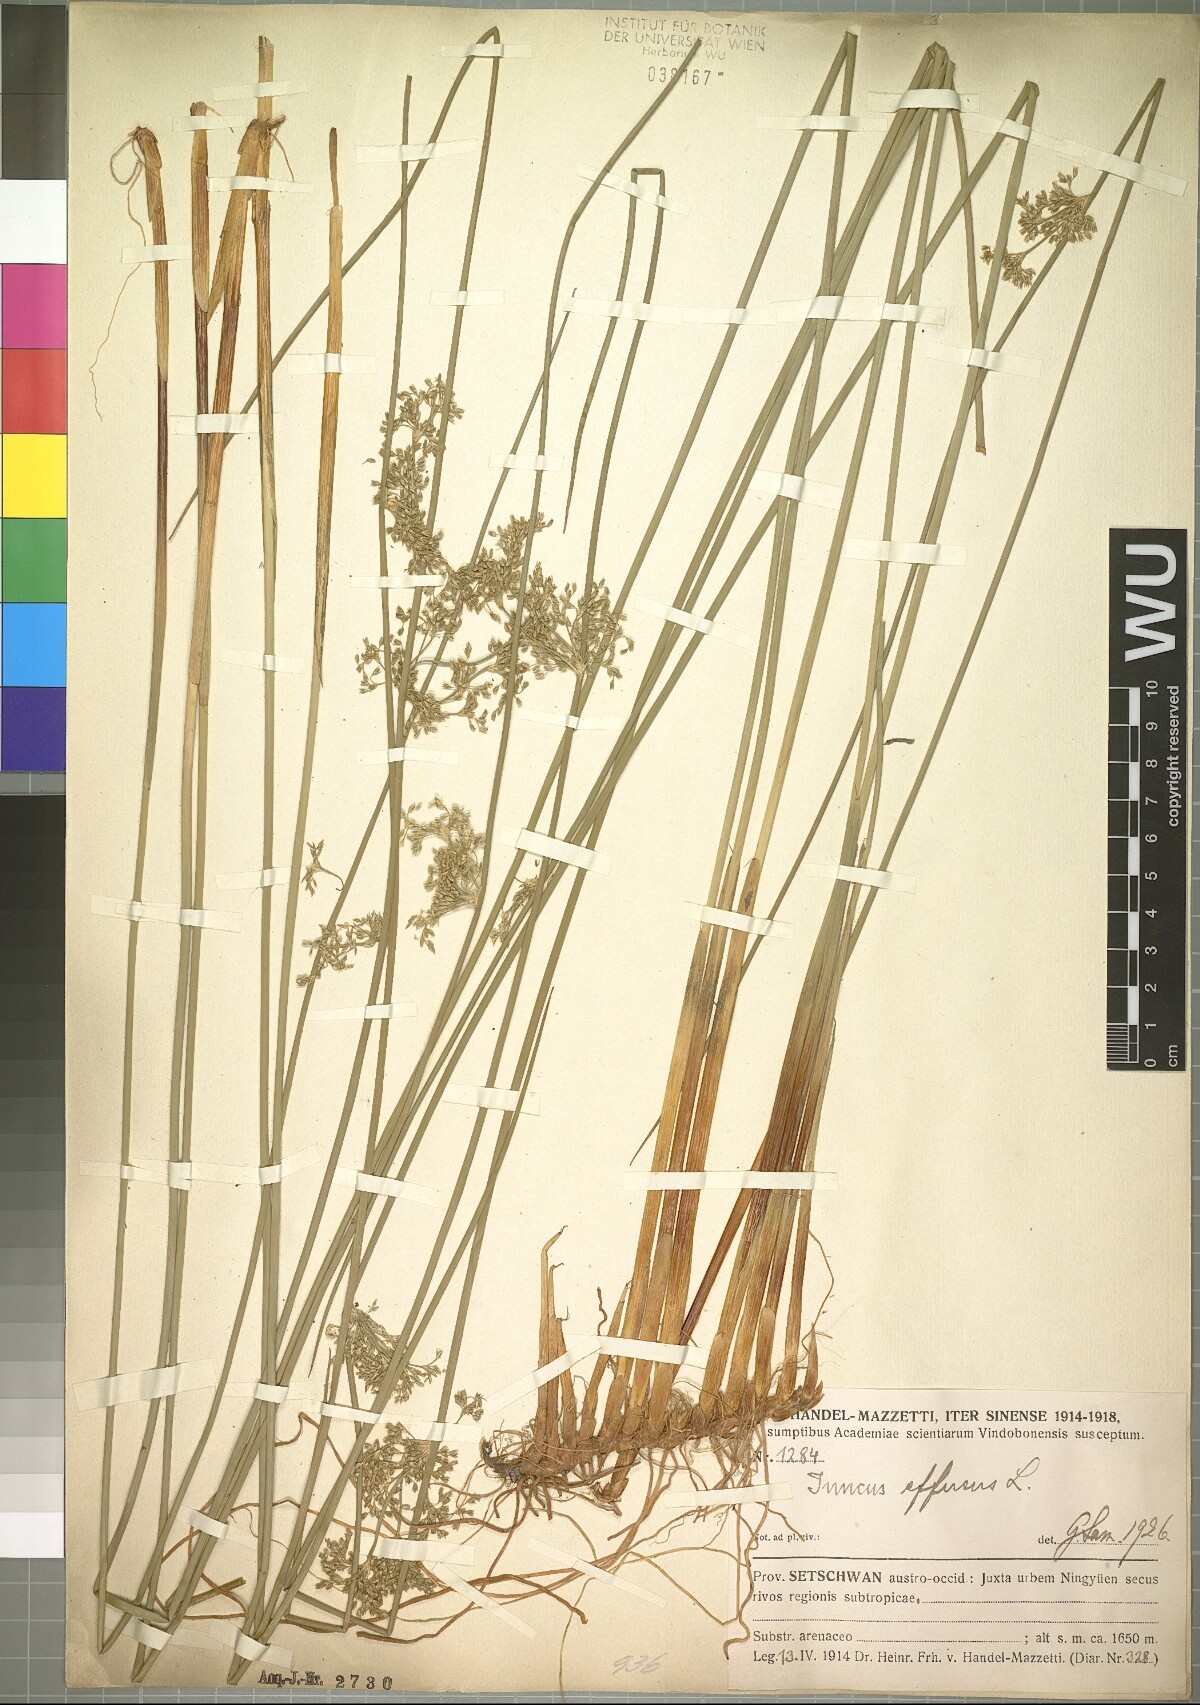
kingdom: Plantae
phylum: Tracheophyta
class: Liliopsida
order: Poales
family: Juncaceae
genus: Juncus
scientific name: Juncus effusus
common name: Soft rush
